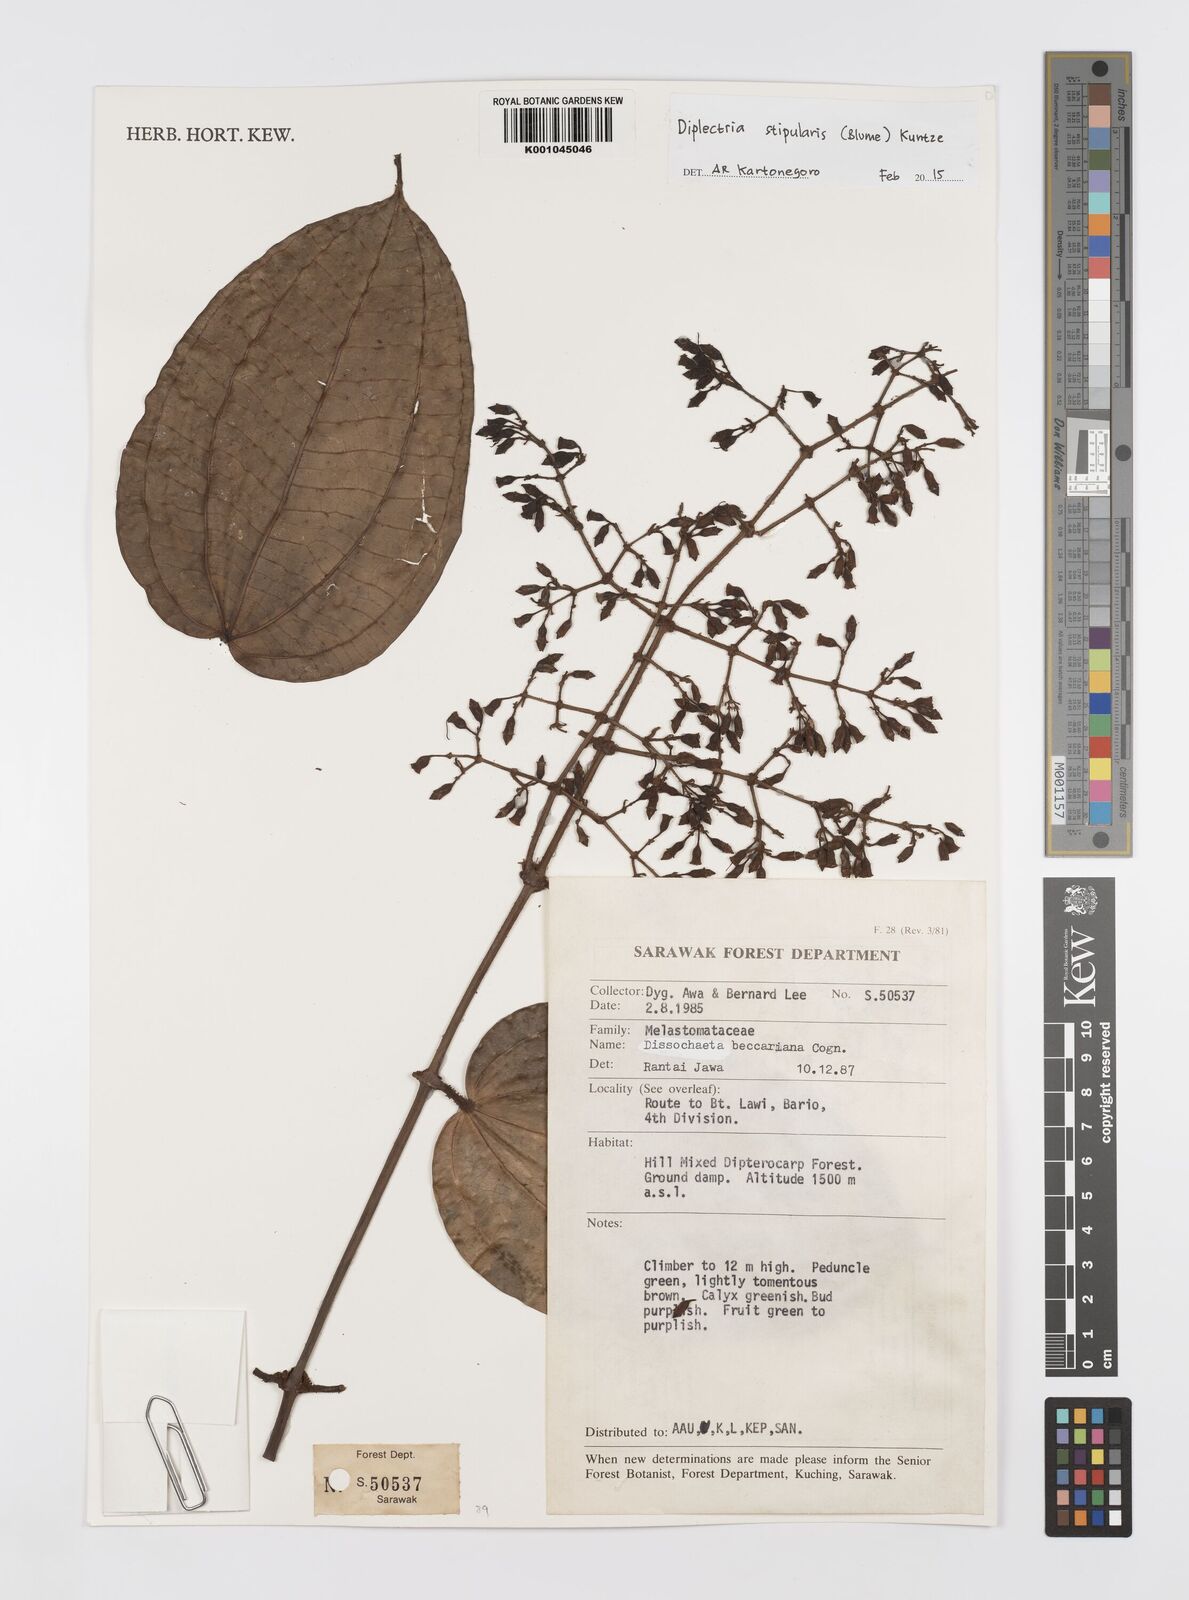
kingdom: Plantae
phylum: Tracheophyta
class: Magnoliopsida
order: Myrtales
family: Melastomataceae
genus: Diplectria
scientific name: Diplectria stipularis
